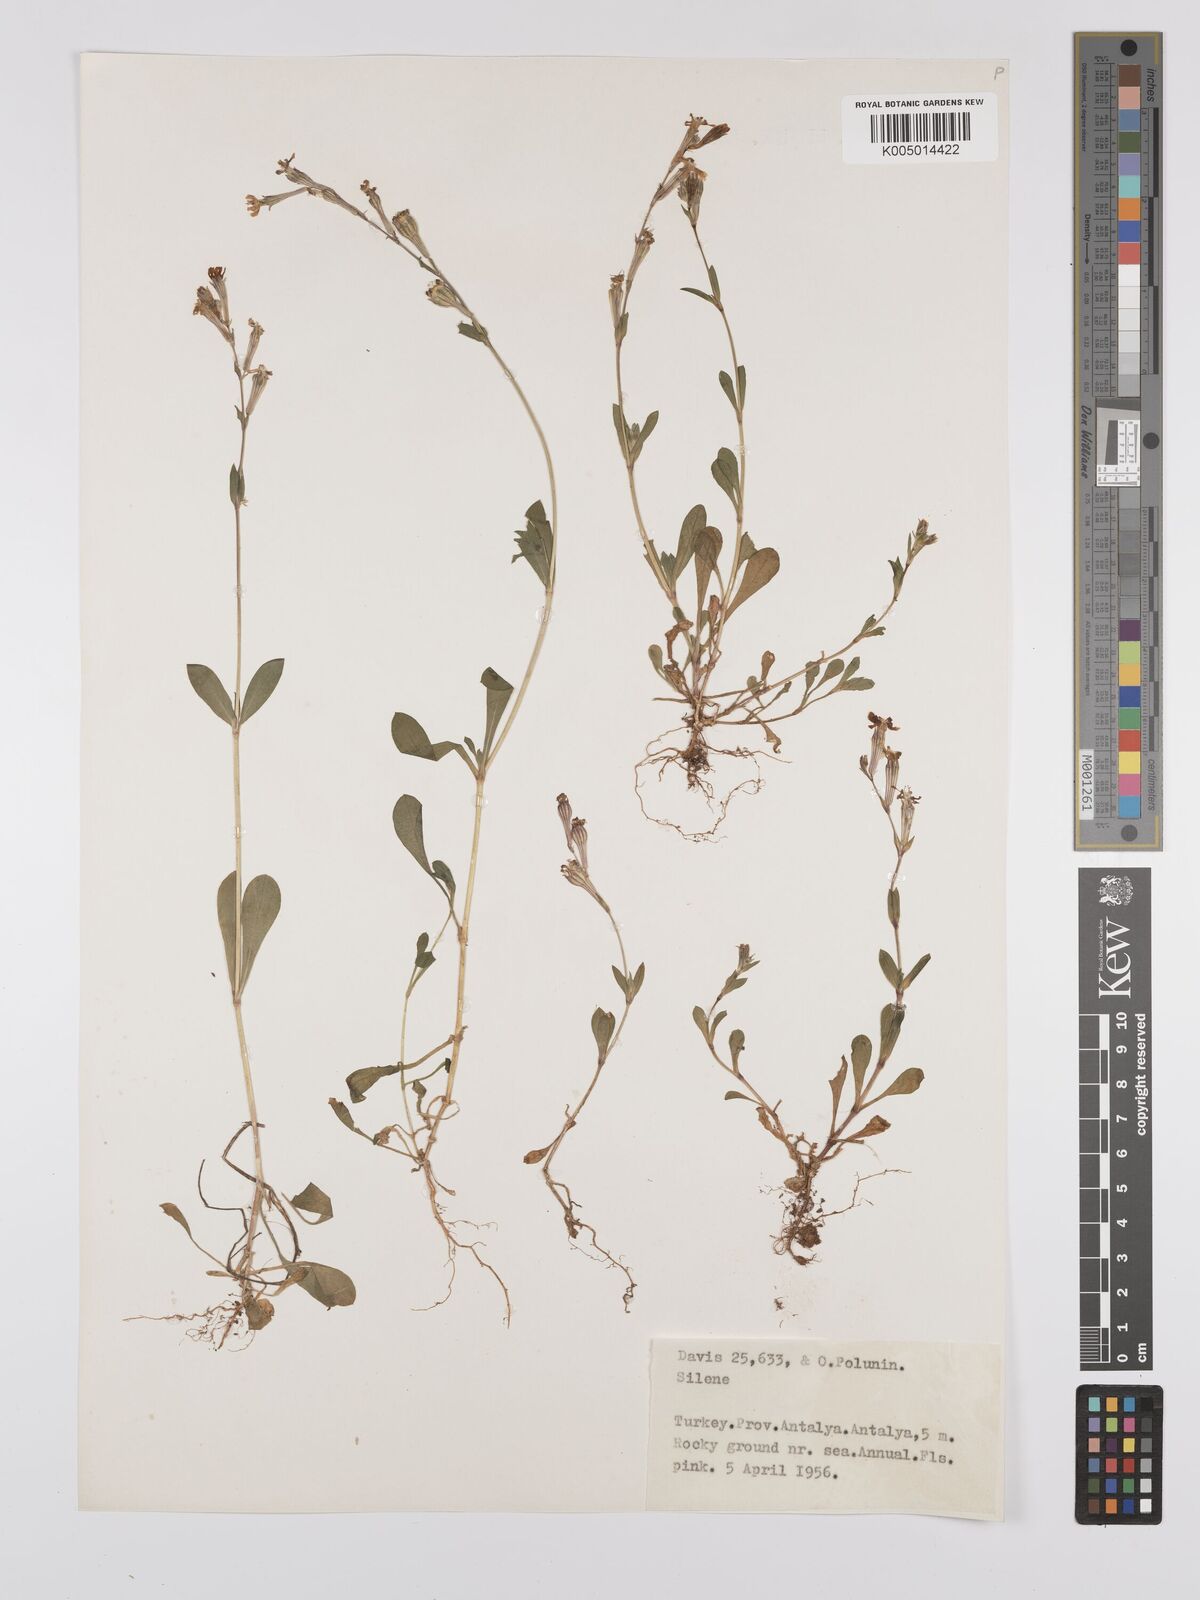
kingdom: Plantae
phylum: Tracheophyta
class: Magnoliopsida
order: Caryophyllales
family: Caryophyllaceae
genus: Silene
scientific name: Silene
